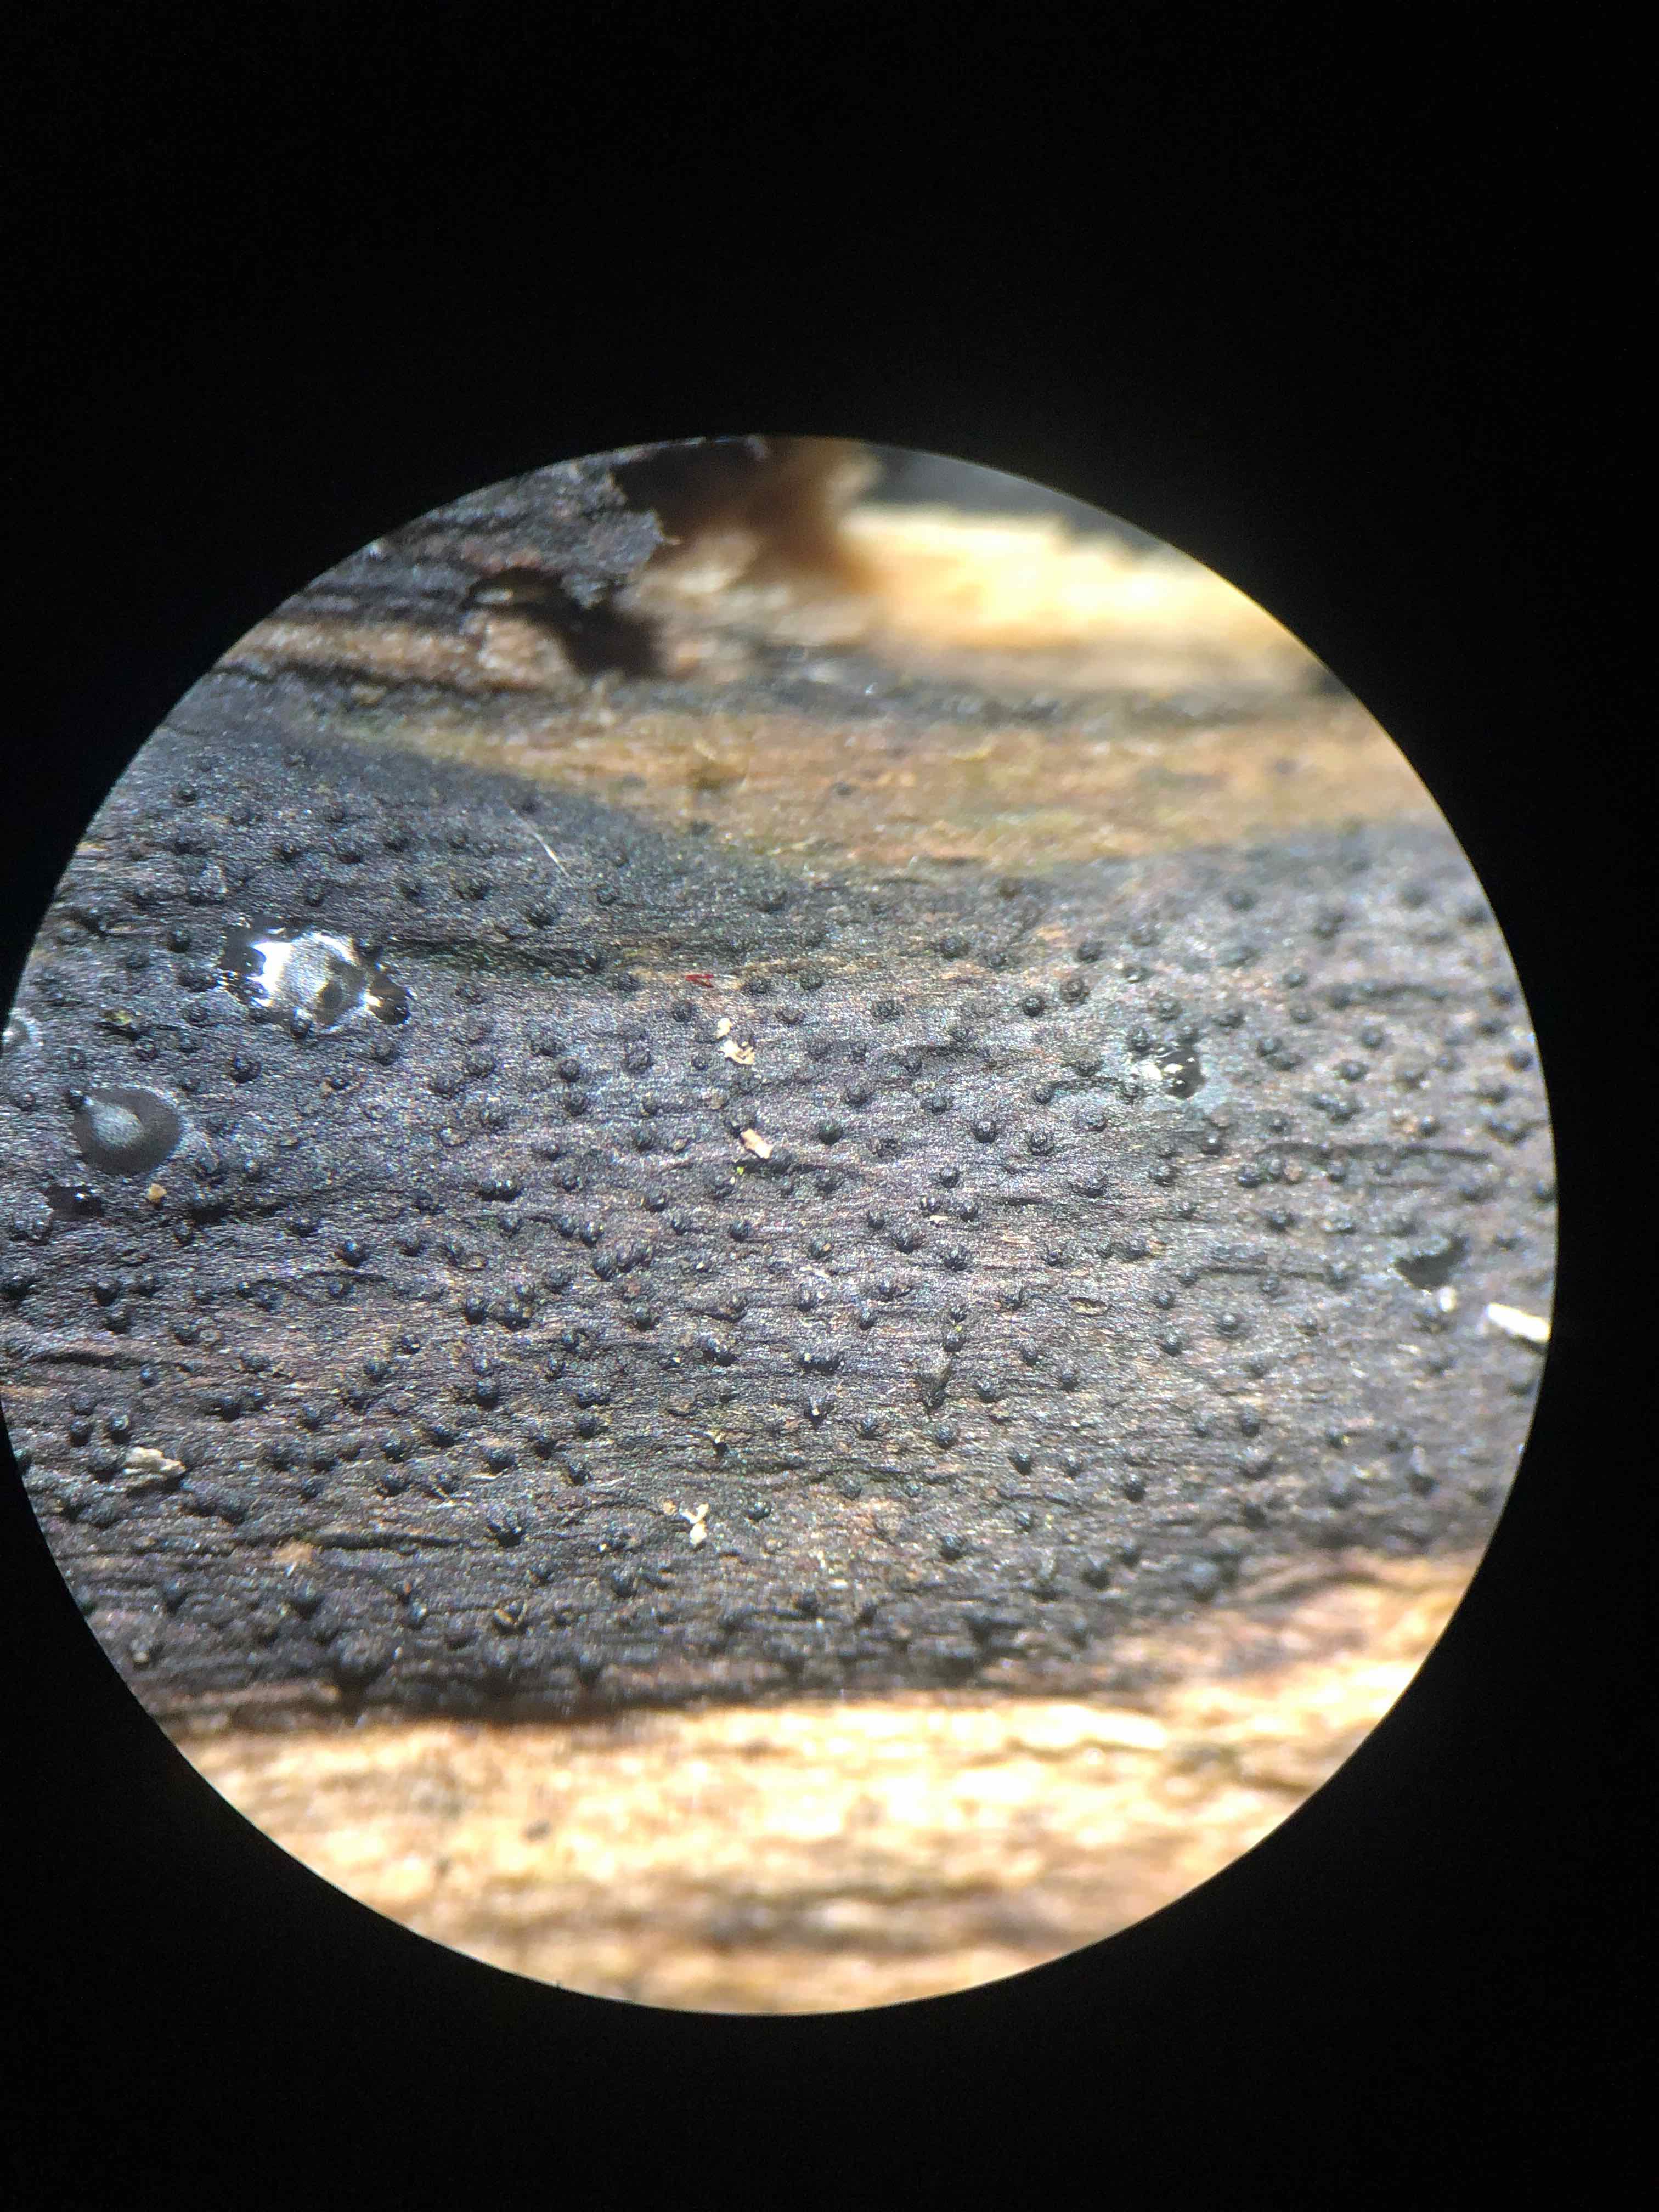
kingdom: Fungi
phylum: Ascomycota
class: Sordariomycetes
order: Xylariales
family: Diatrypaceae
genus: Eutypa
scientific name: Eutypa leioplaca
